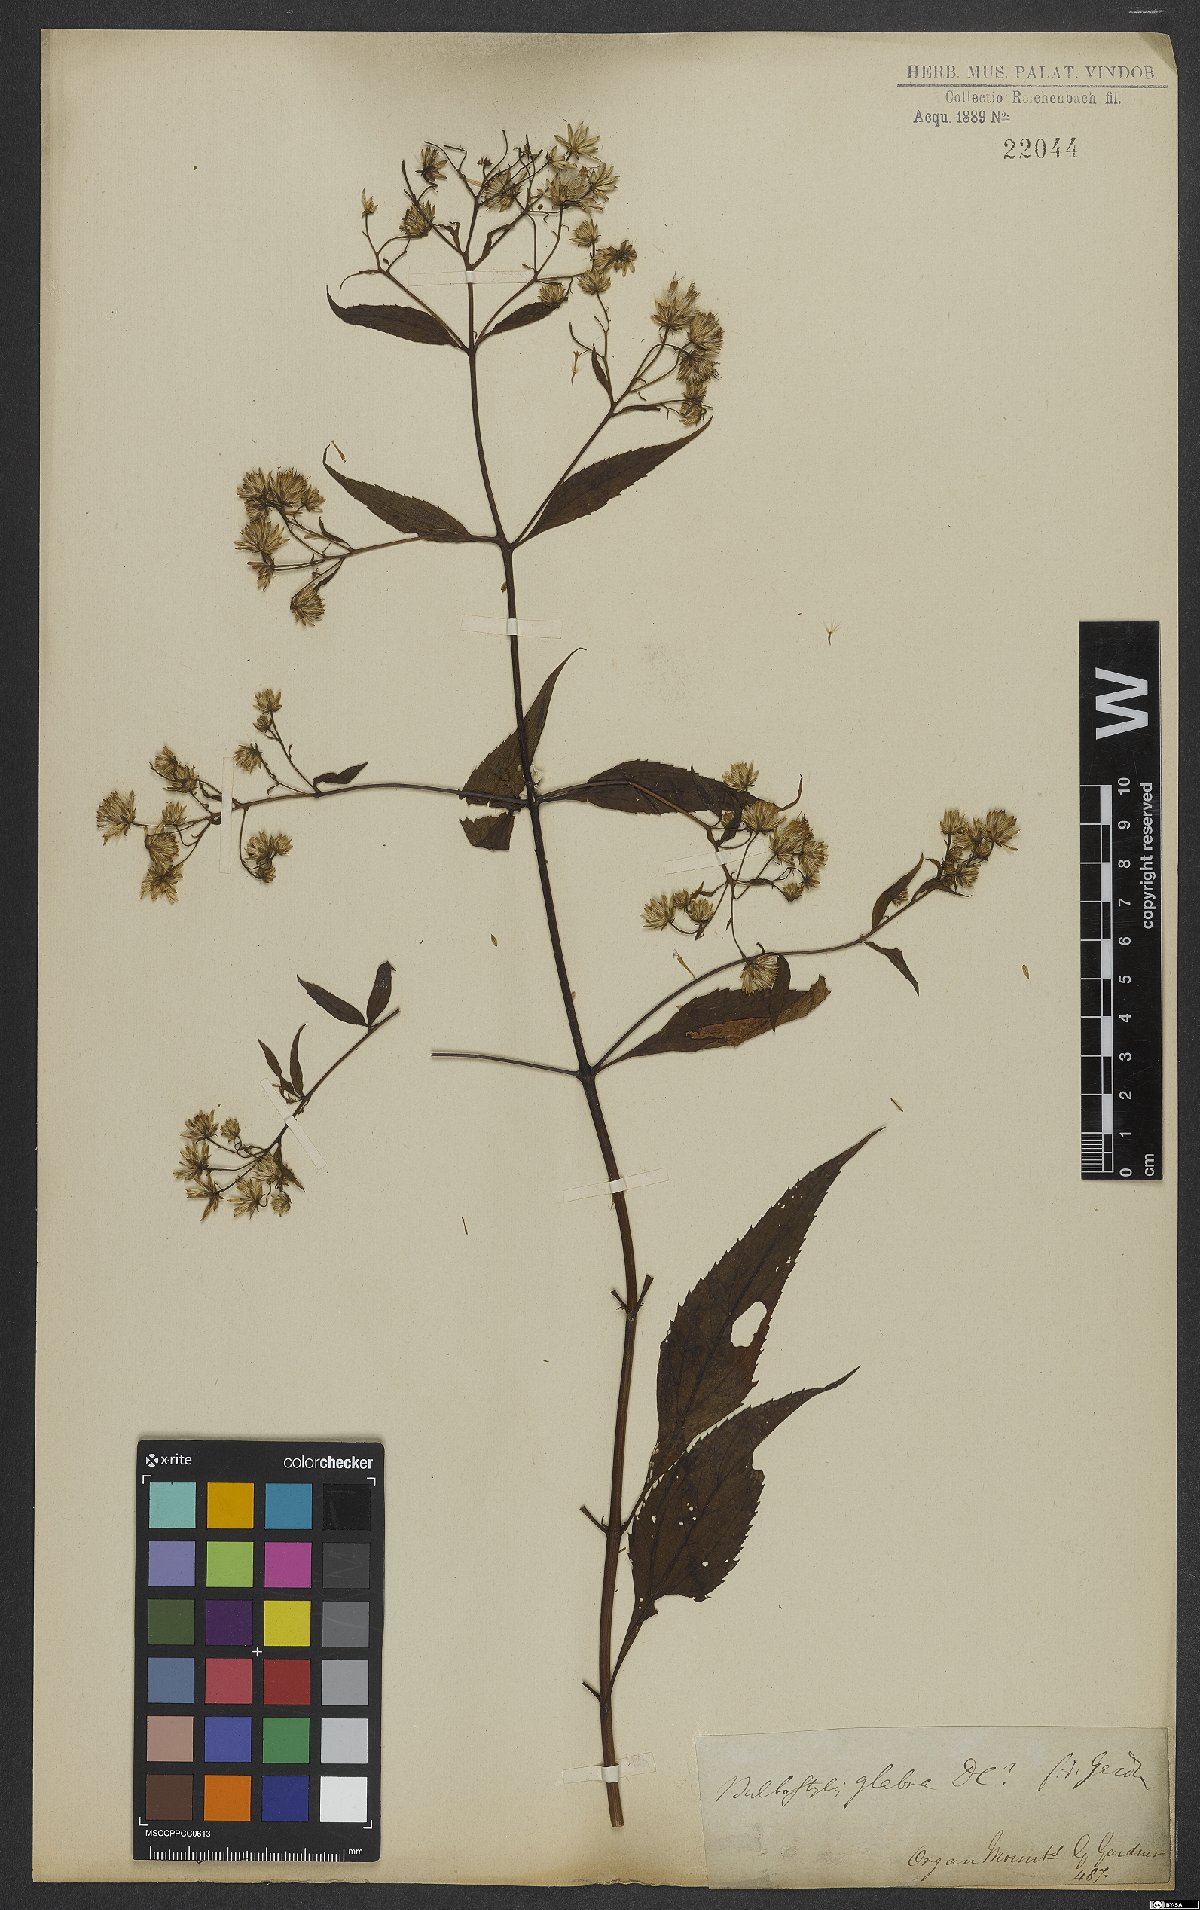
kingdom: Plantae
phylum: Tracheophyta
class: Magnoliopsida
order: Asterales
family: Asteraceae
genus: Heterocondylus
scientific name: Heterocondylus alatus
